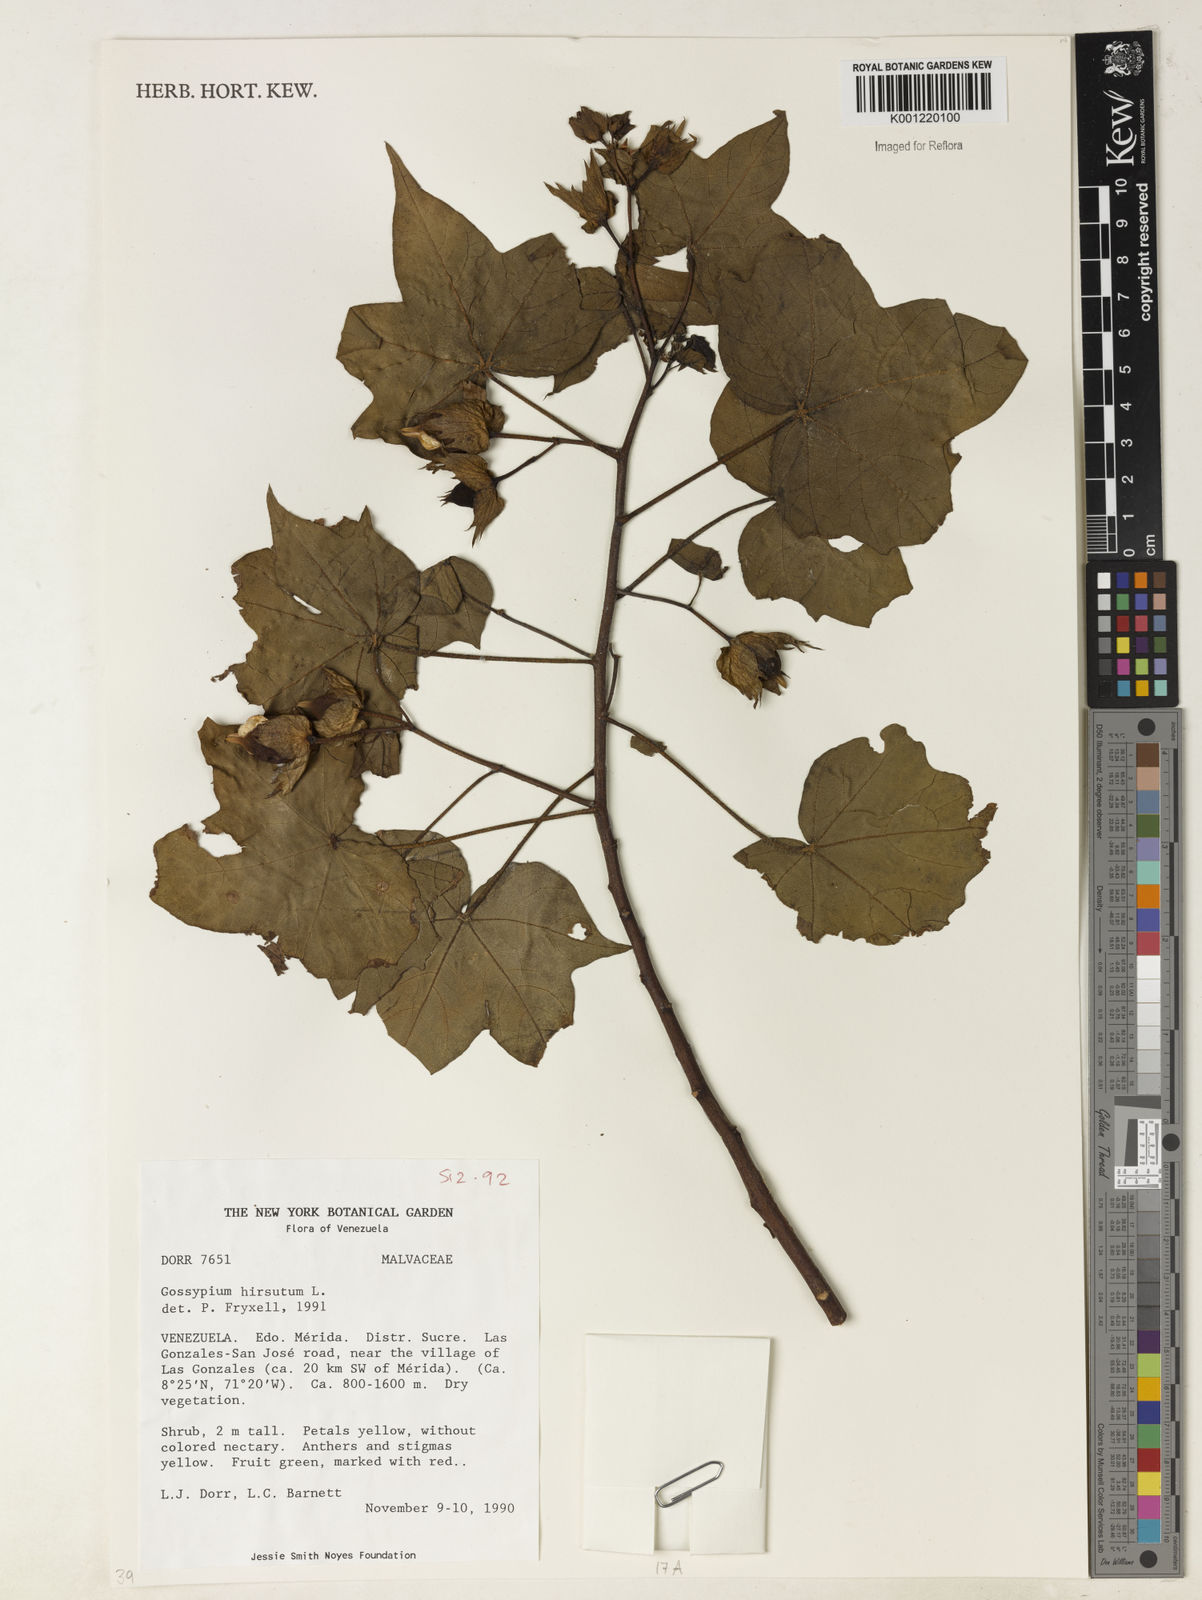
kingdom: Plantae
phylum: Tracheophyta
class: Magnoliopsida
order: Malvales
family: Malvaceae
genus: Gossypium
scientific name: Gossypium
